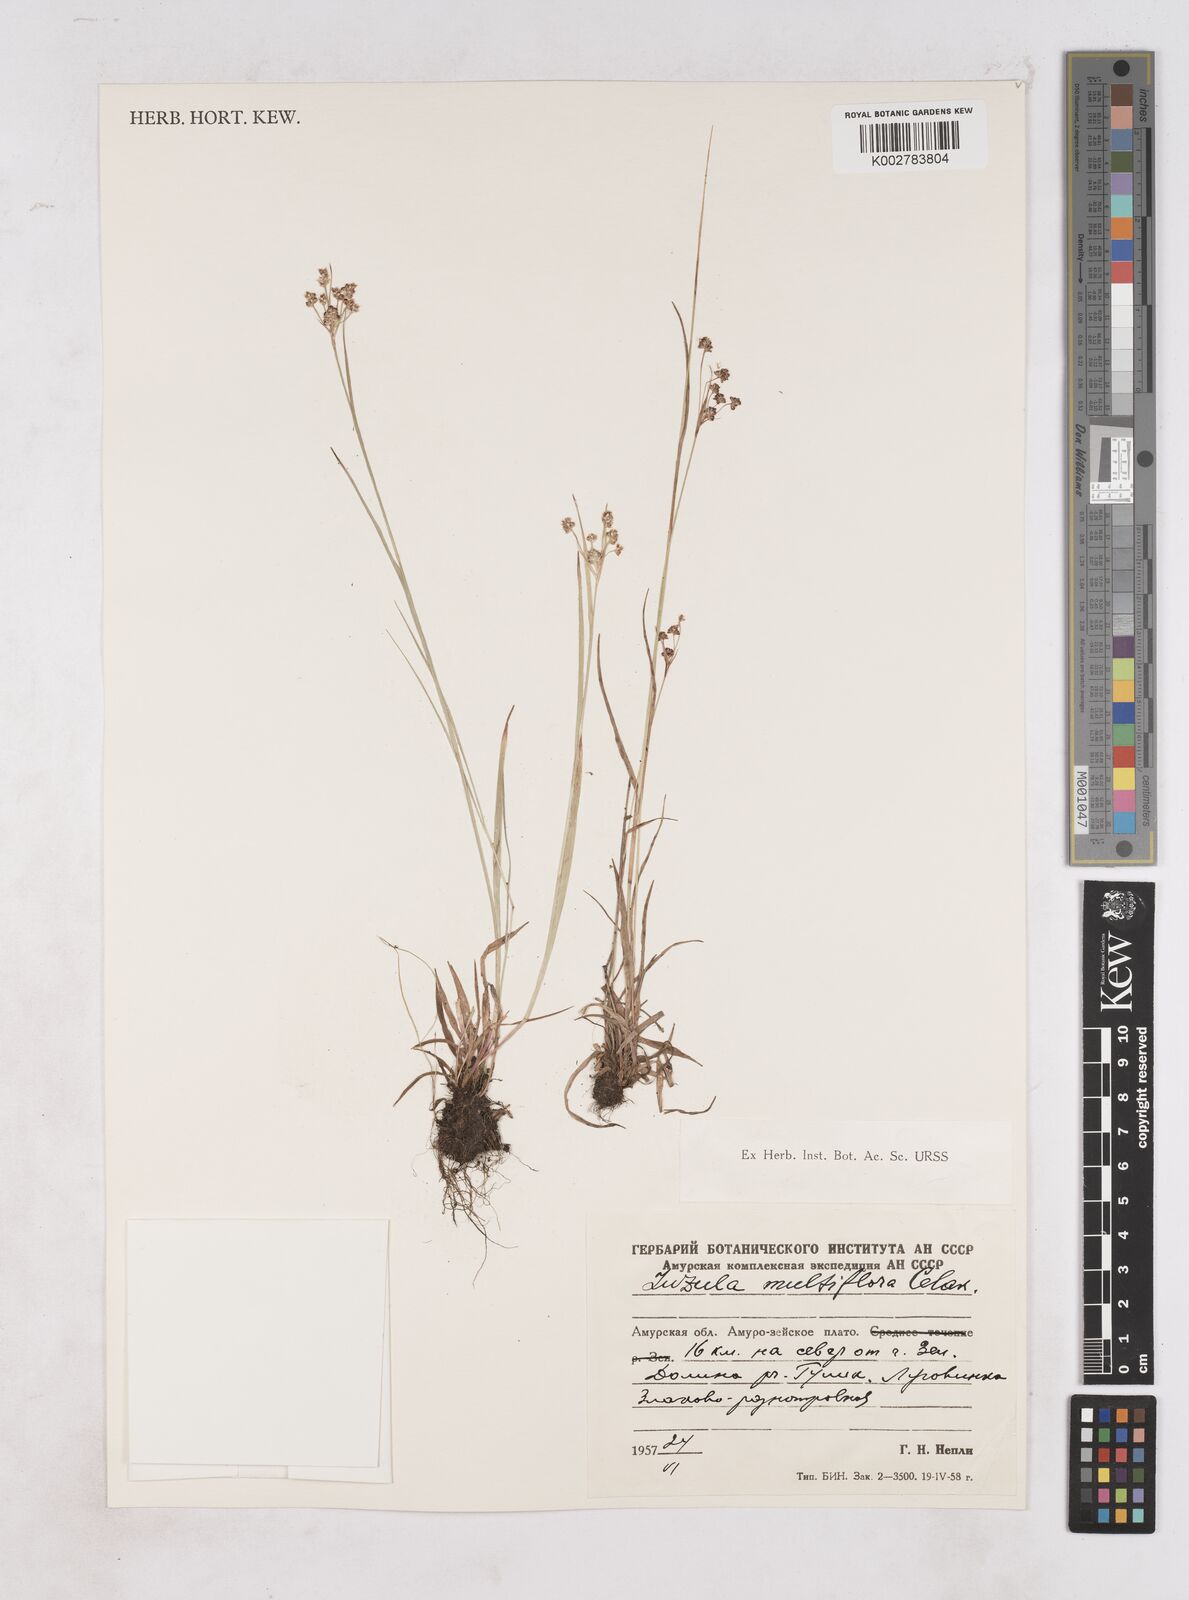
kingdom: Plantae
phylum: Tracheophyta
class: Liliopsida
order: Poales
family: Juncaceae
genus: Luzula
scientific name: Luzula campestris
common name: Field wood-rush
